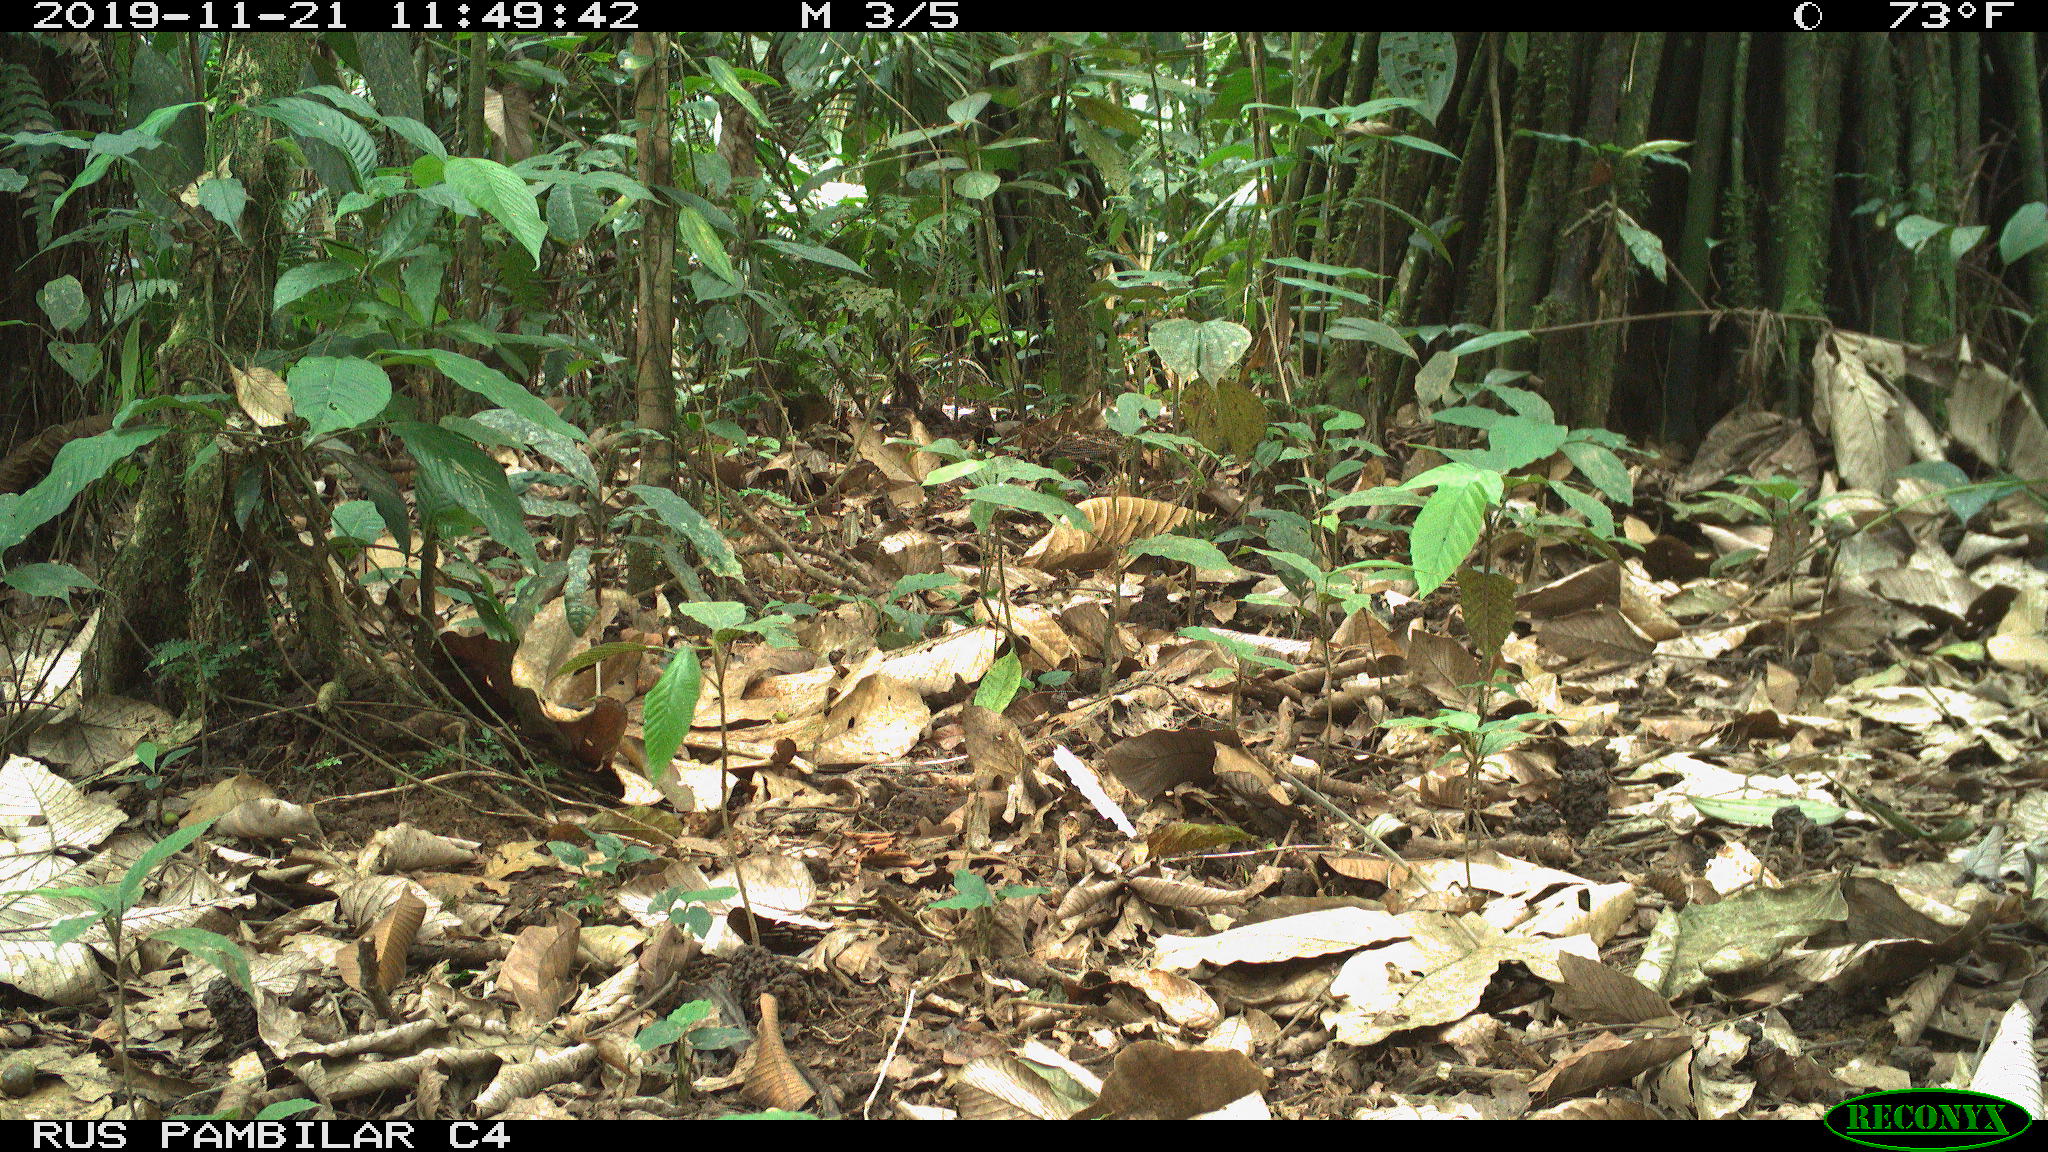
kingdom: Animalia
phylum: Chordata
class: Mammalia
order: Artiodactyla
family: Tayassuidae
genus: Tayassu
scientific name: Tayassu pecari
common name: White-lipped peccary
